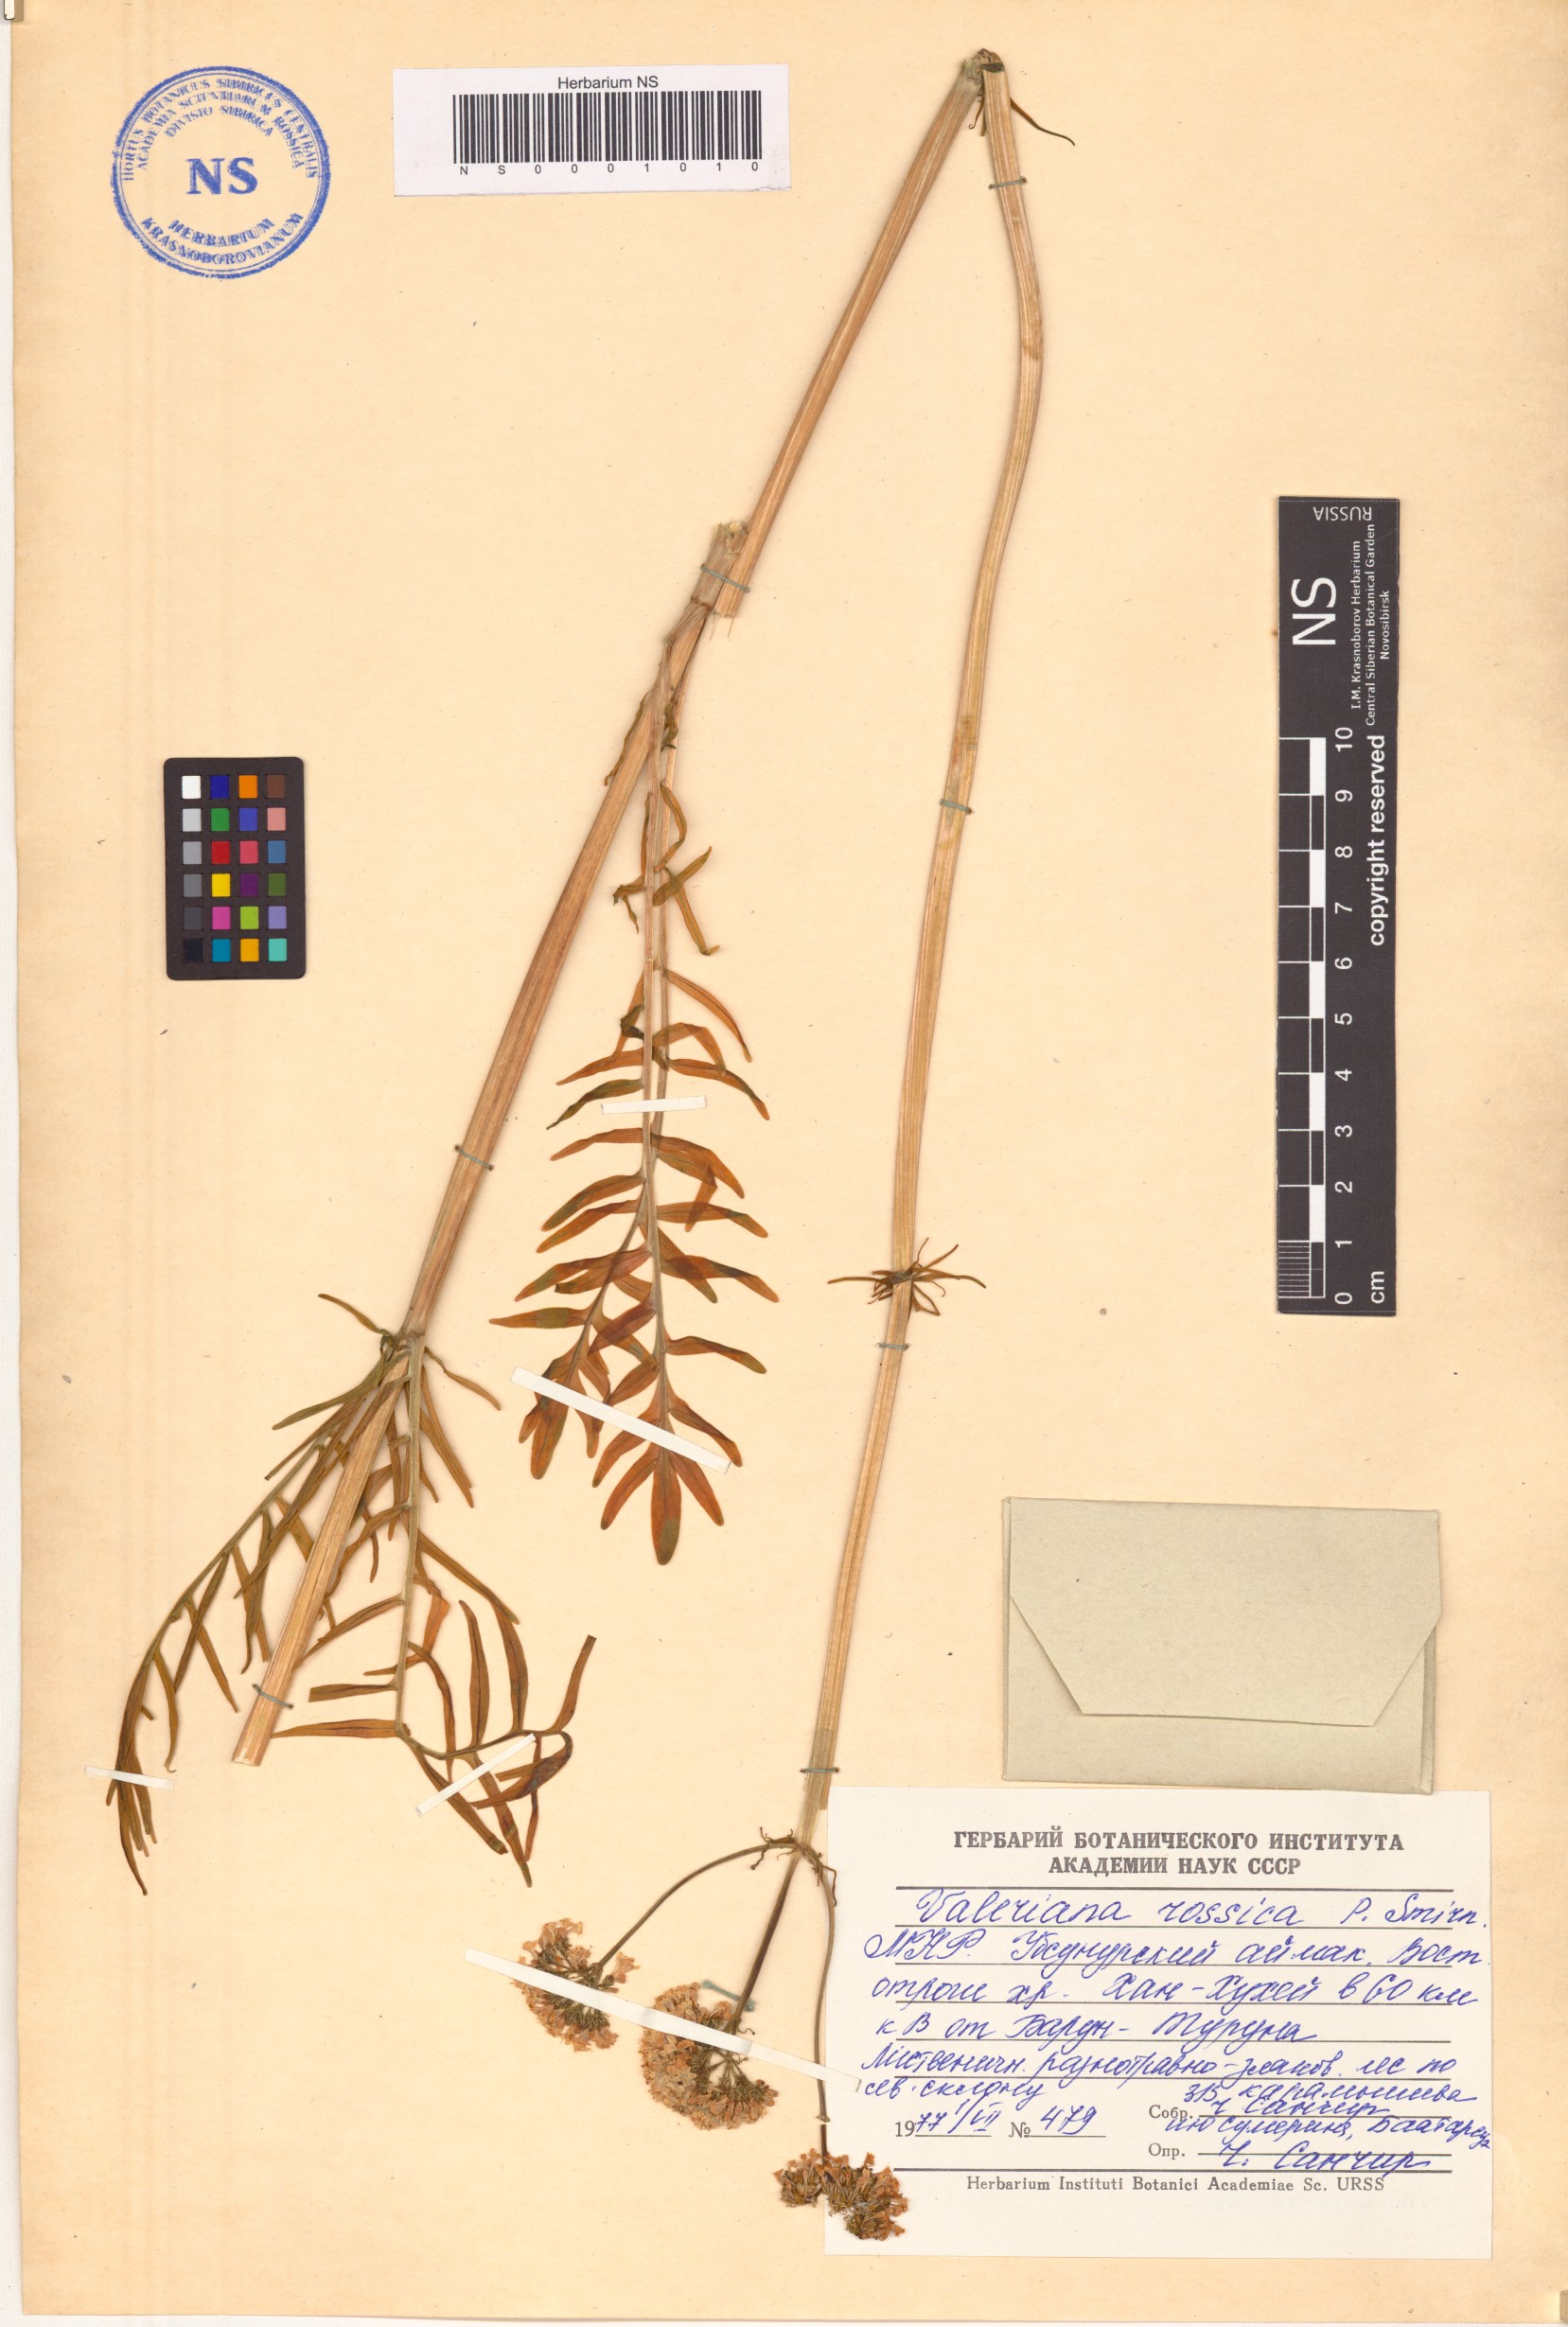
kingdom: Plantae
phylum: Tracheophyta
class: Magnoliopsida
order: Dipsacales
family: Caprifoliaceae
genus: Valeriana
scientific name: Valeriana rossica
